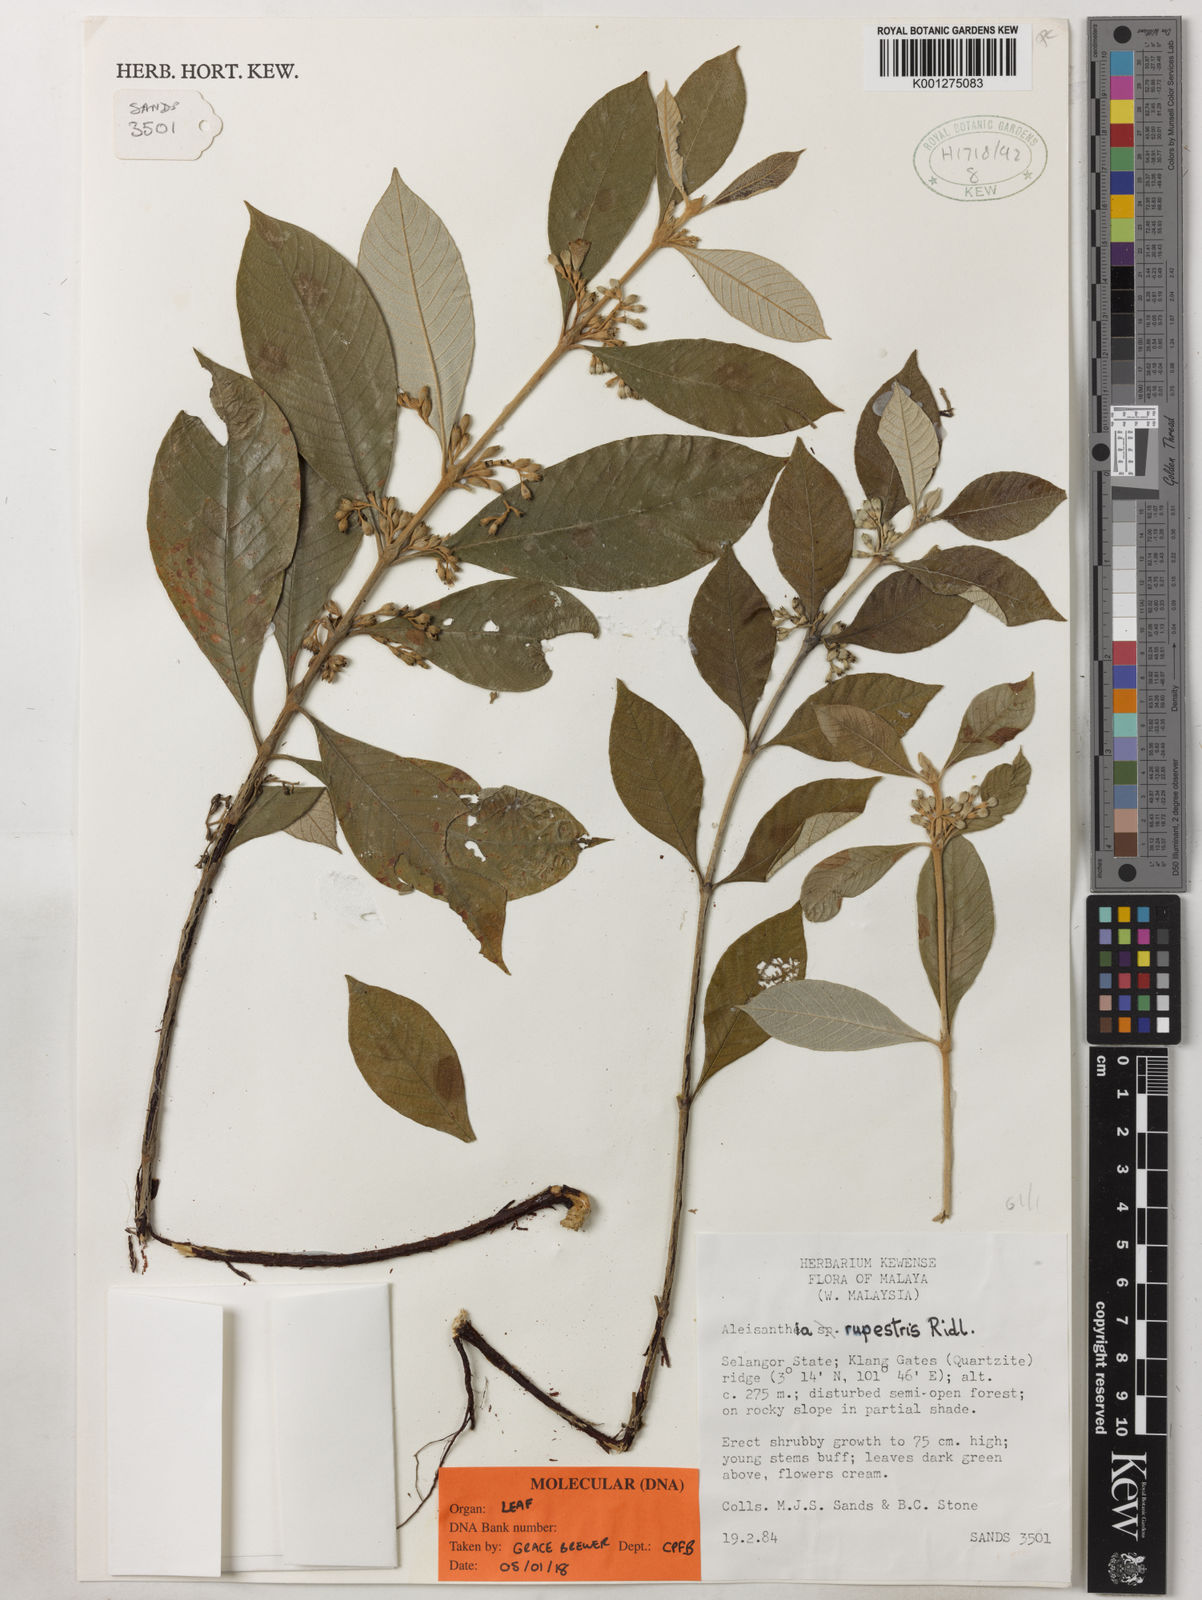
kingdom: Plantae
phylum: Tracheophyta
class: Magnoliopsida
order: Gentianales
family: Rubiaceae
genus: Aleisanthia
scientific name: Aleisanthia rupestris
